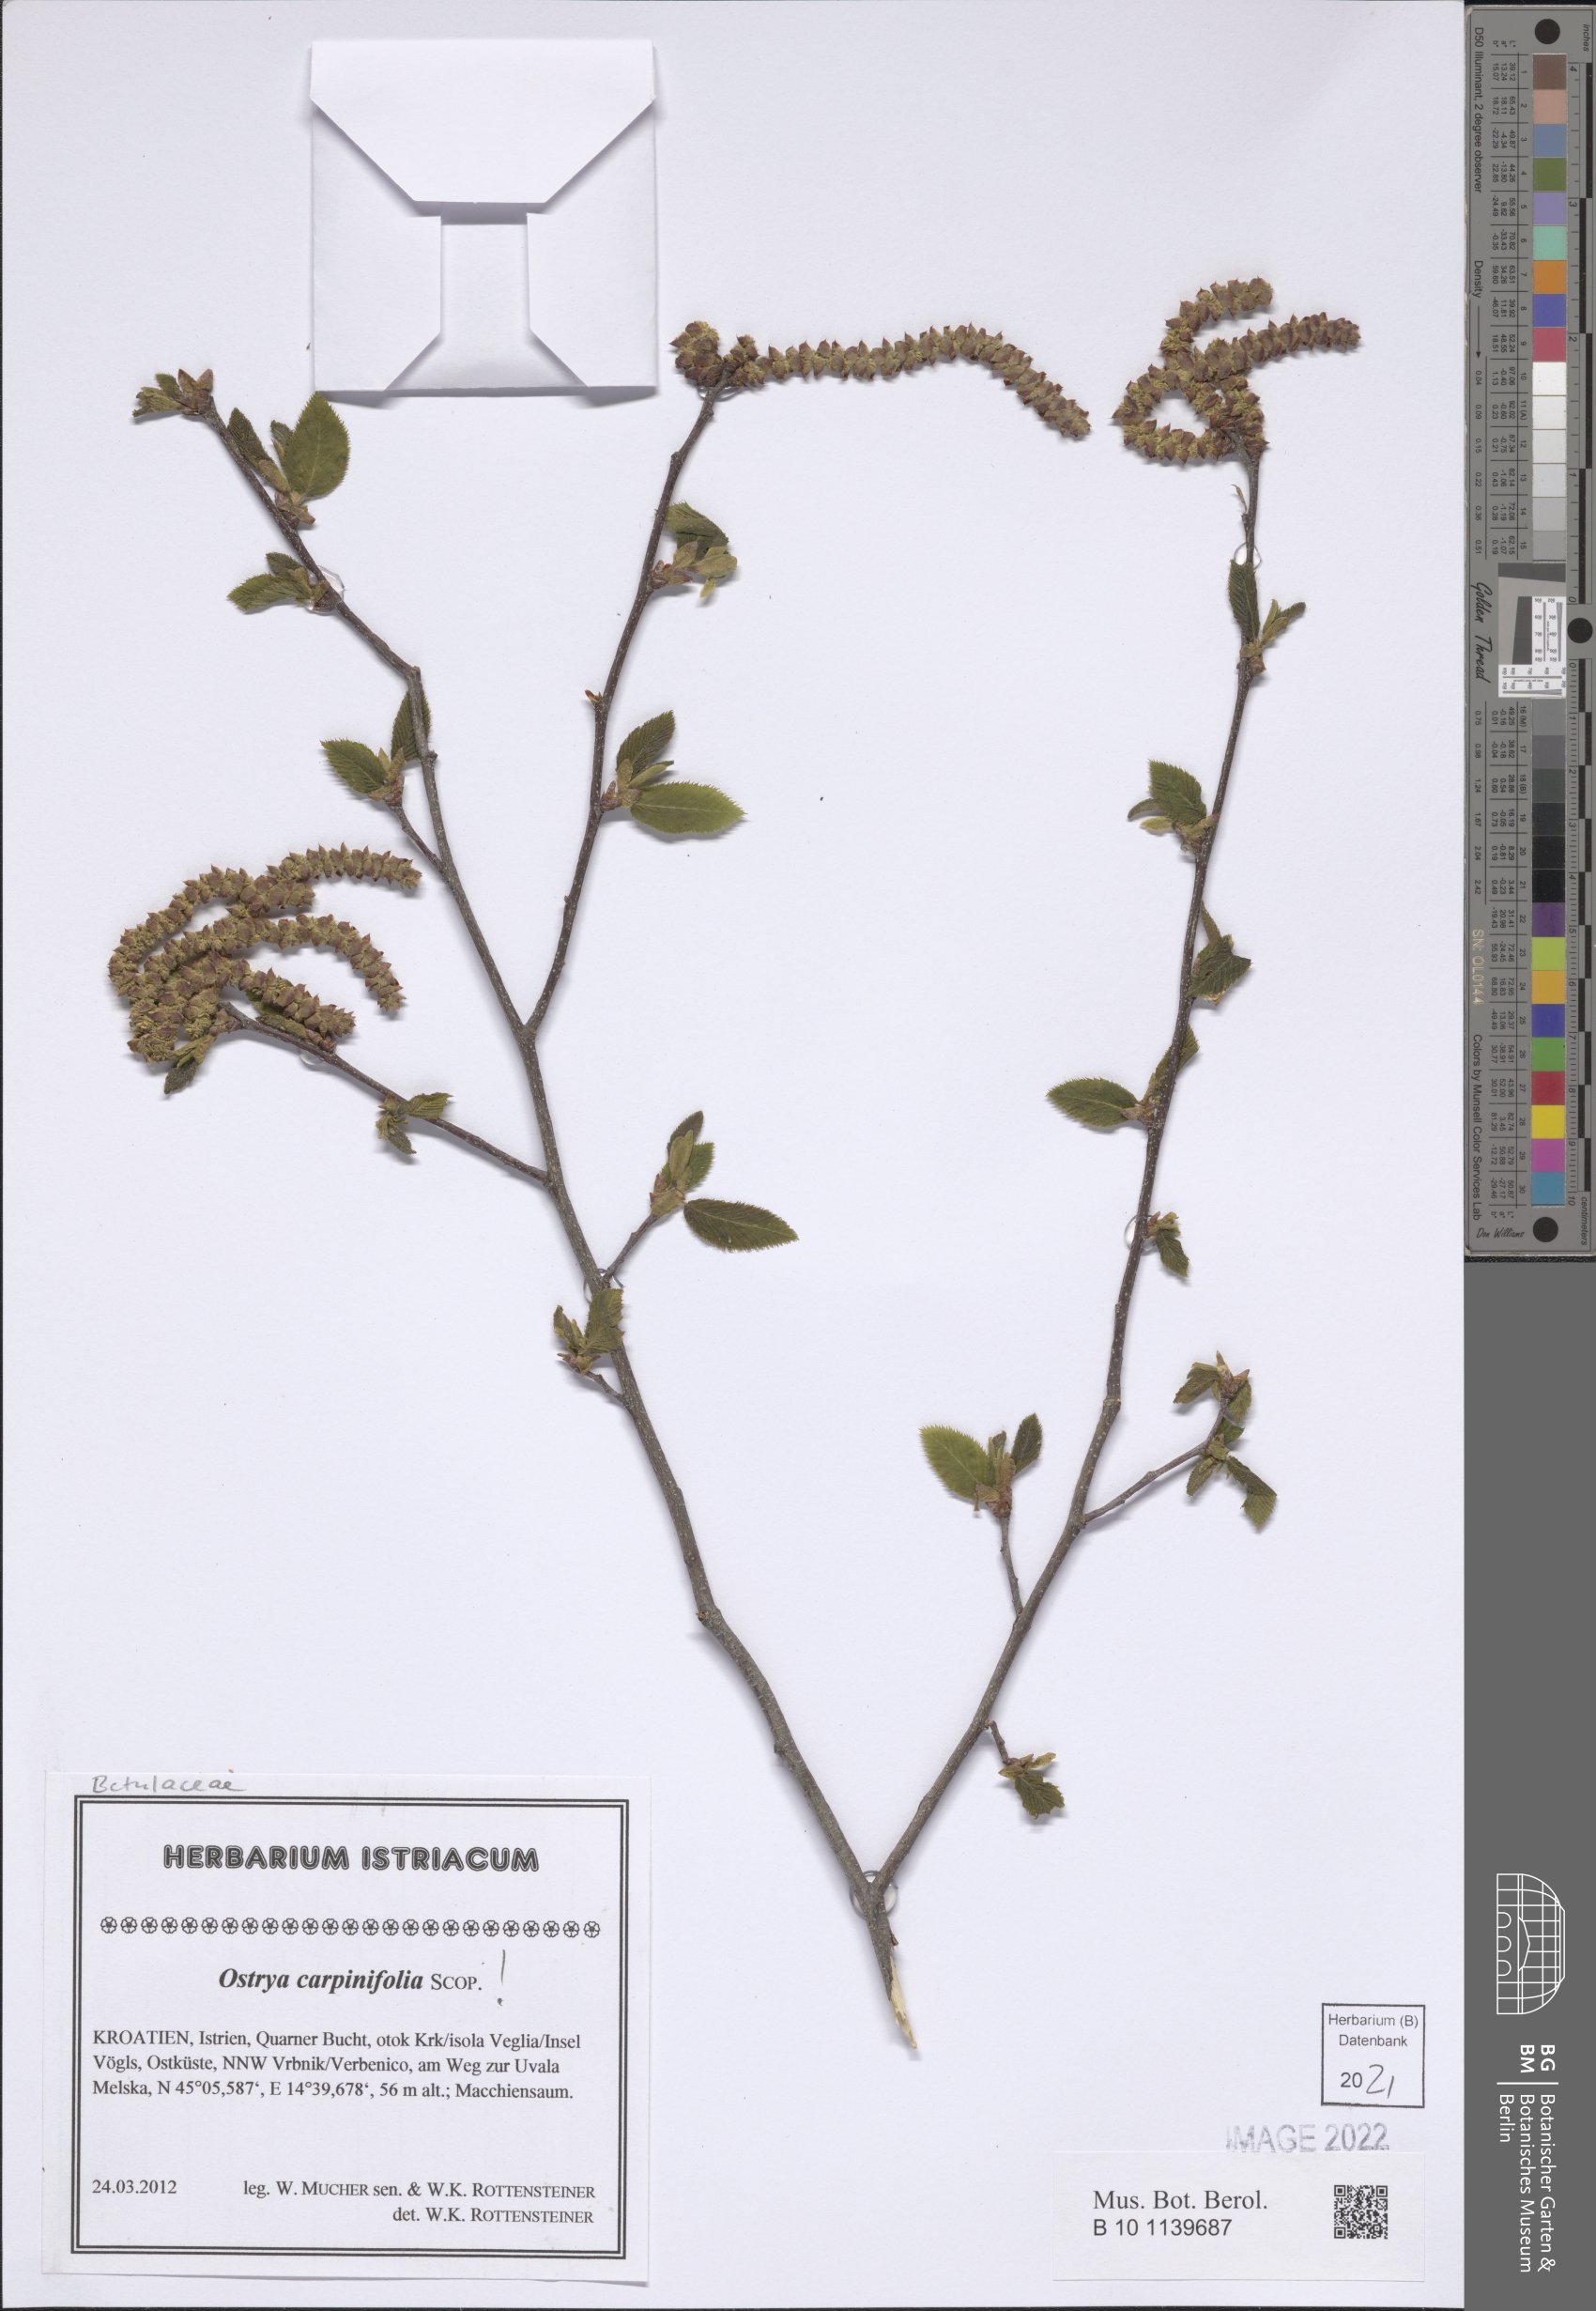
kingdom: Plantae
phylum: Tracheophyta
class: Magnoliopsida
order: Fagales
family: Betulaceae
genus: Ostrya
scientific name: Ostrya carpinifolia
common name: European hop-hornbeam
